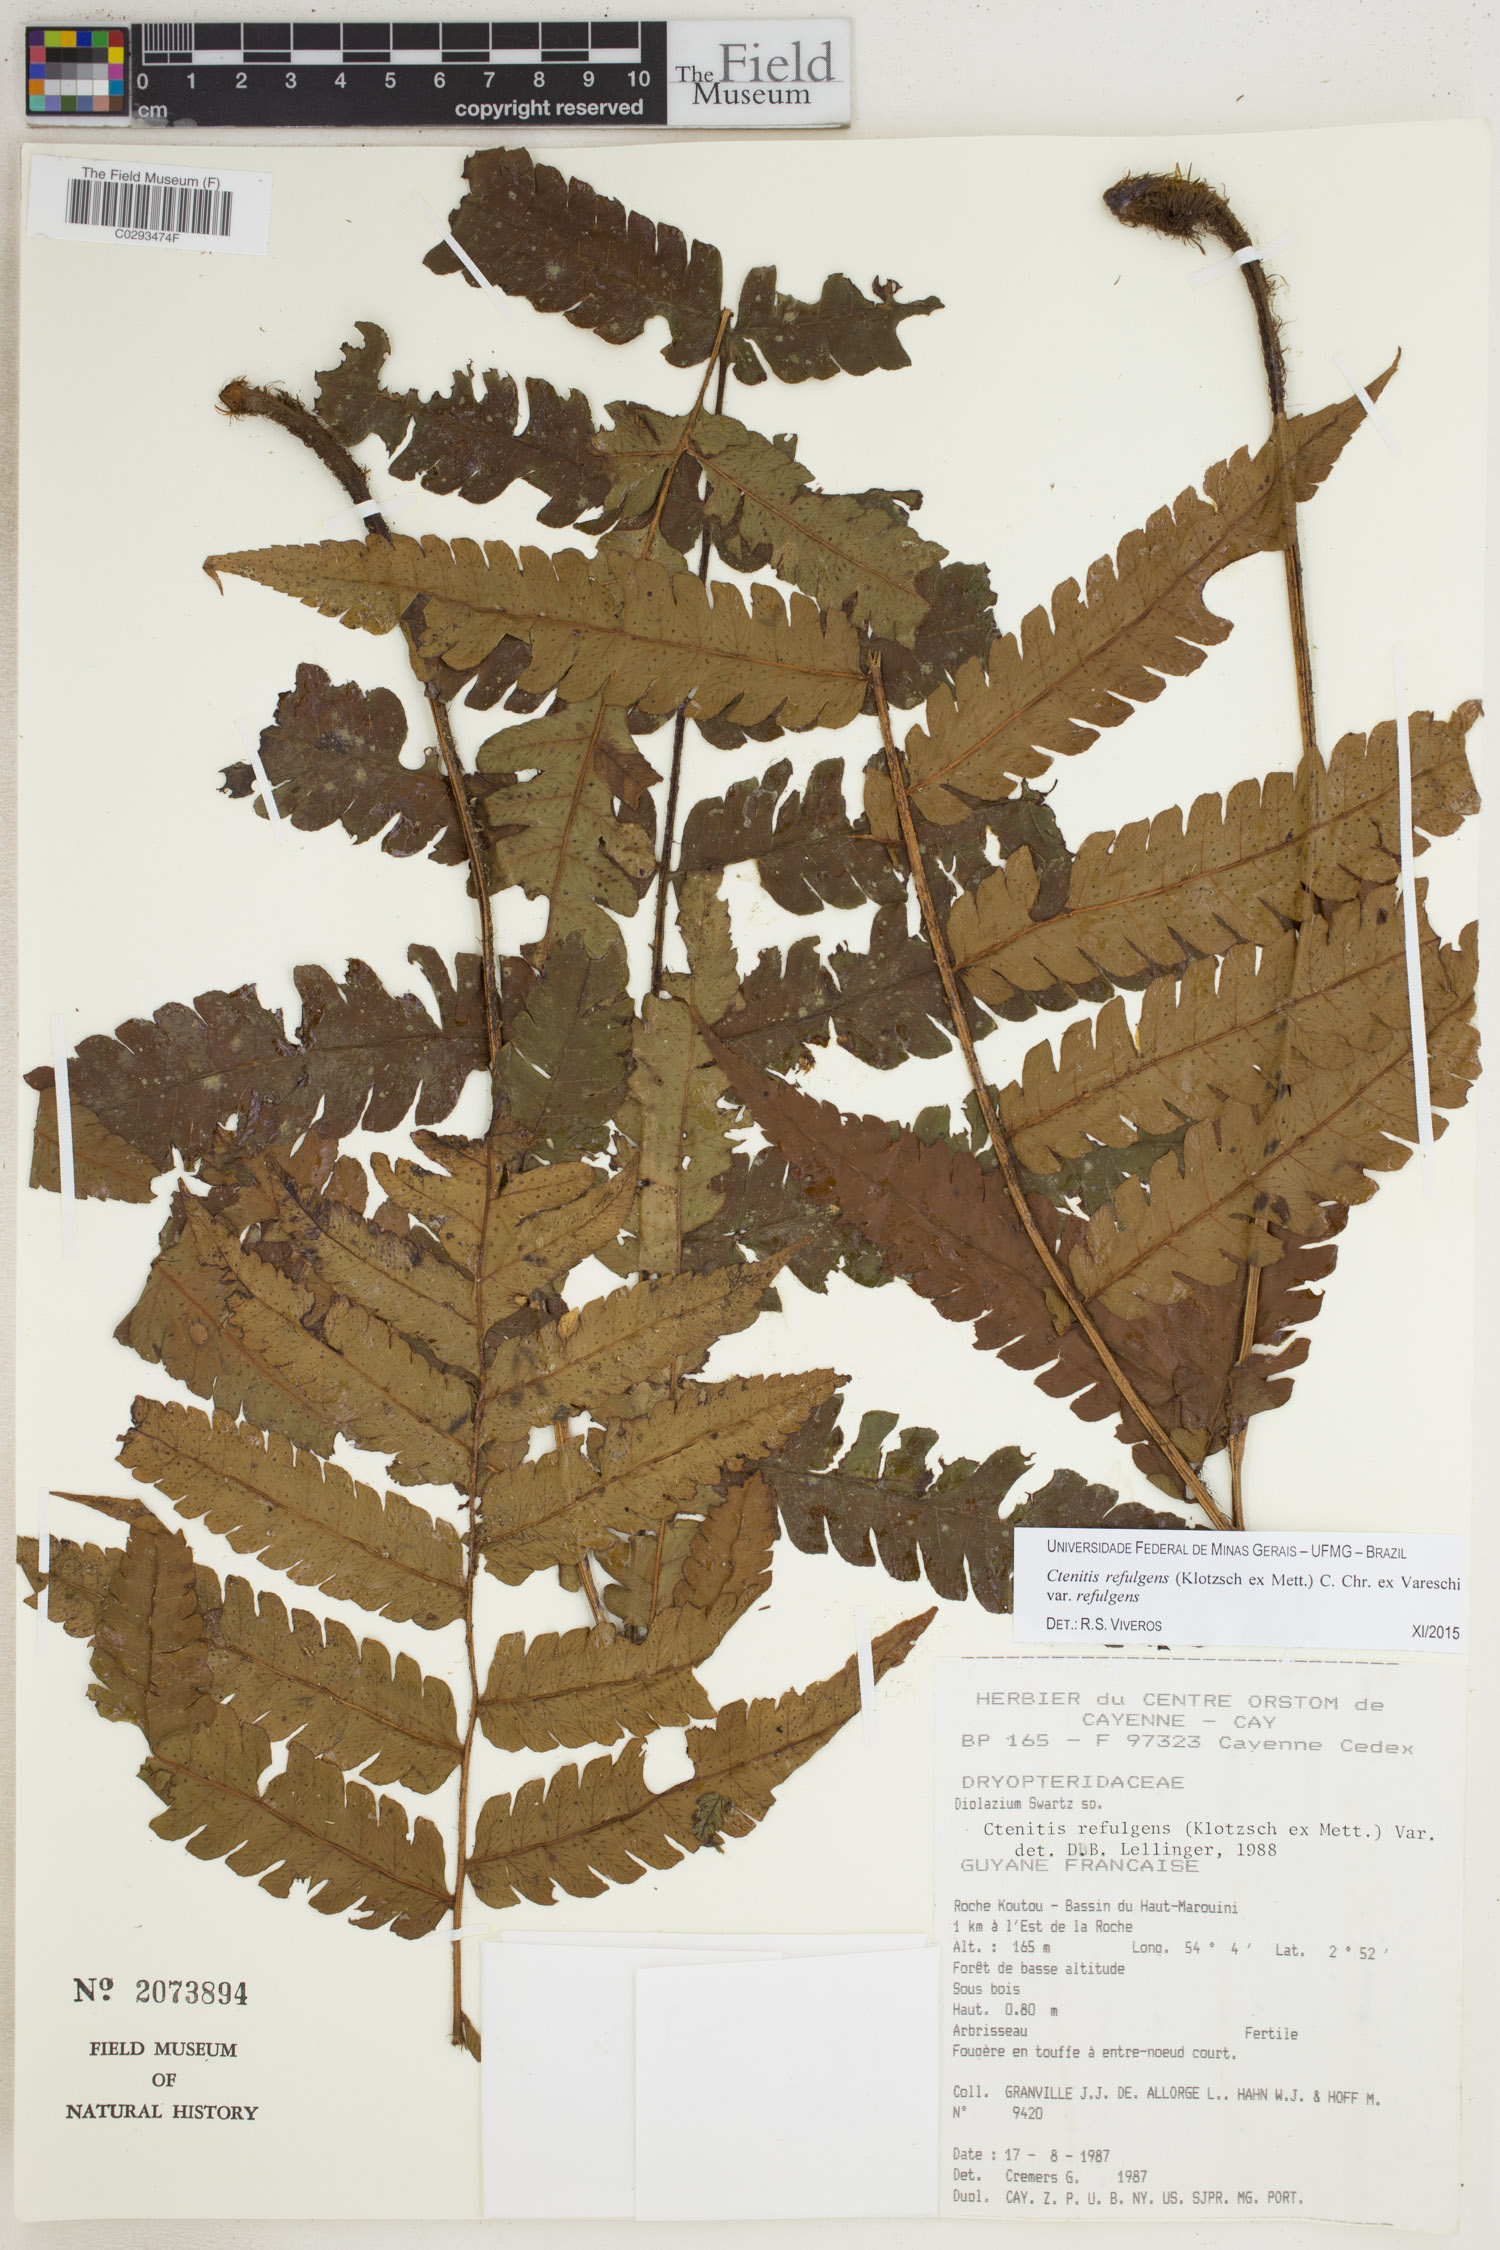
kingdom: Plantae
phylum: Tracheophyta
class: Polypodiopsida
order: Polypodiales
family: Dryopteridaceae
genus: Ctenitis
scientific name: Ctenitis refulgens
